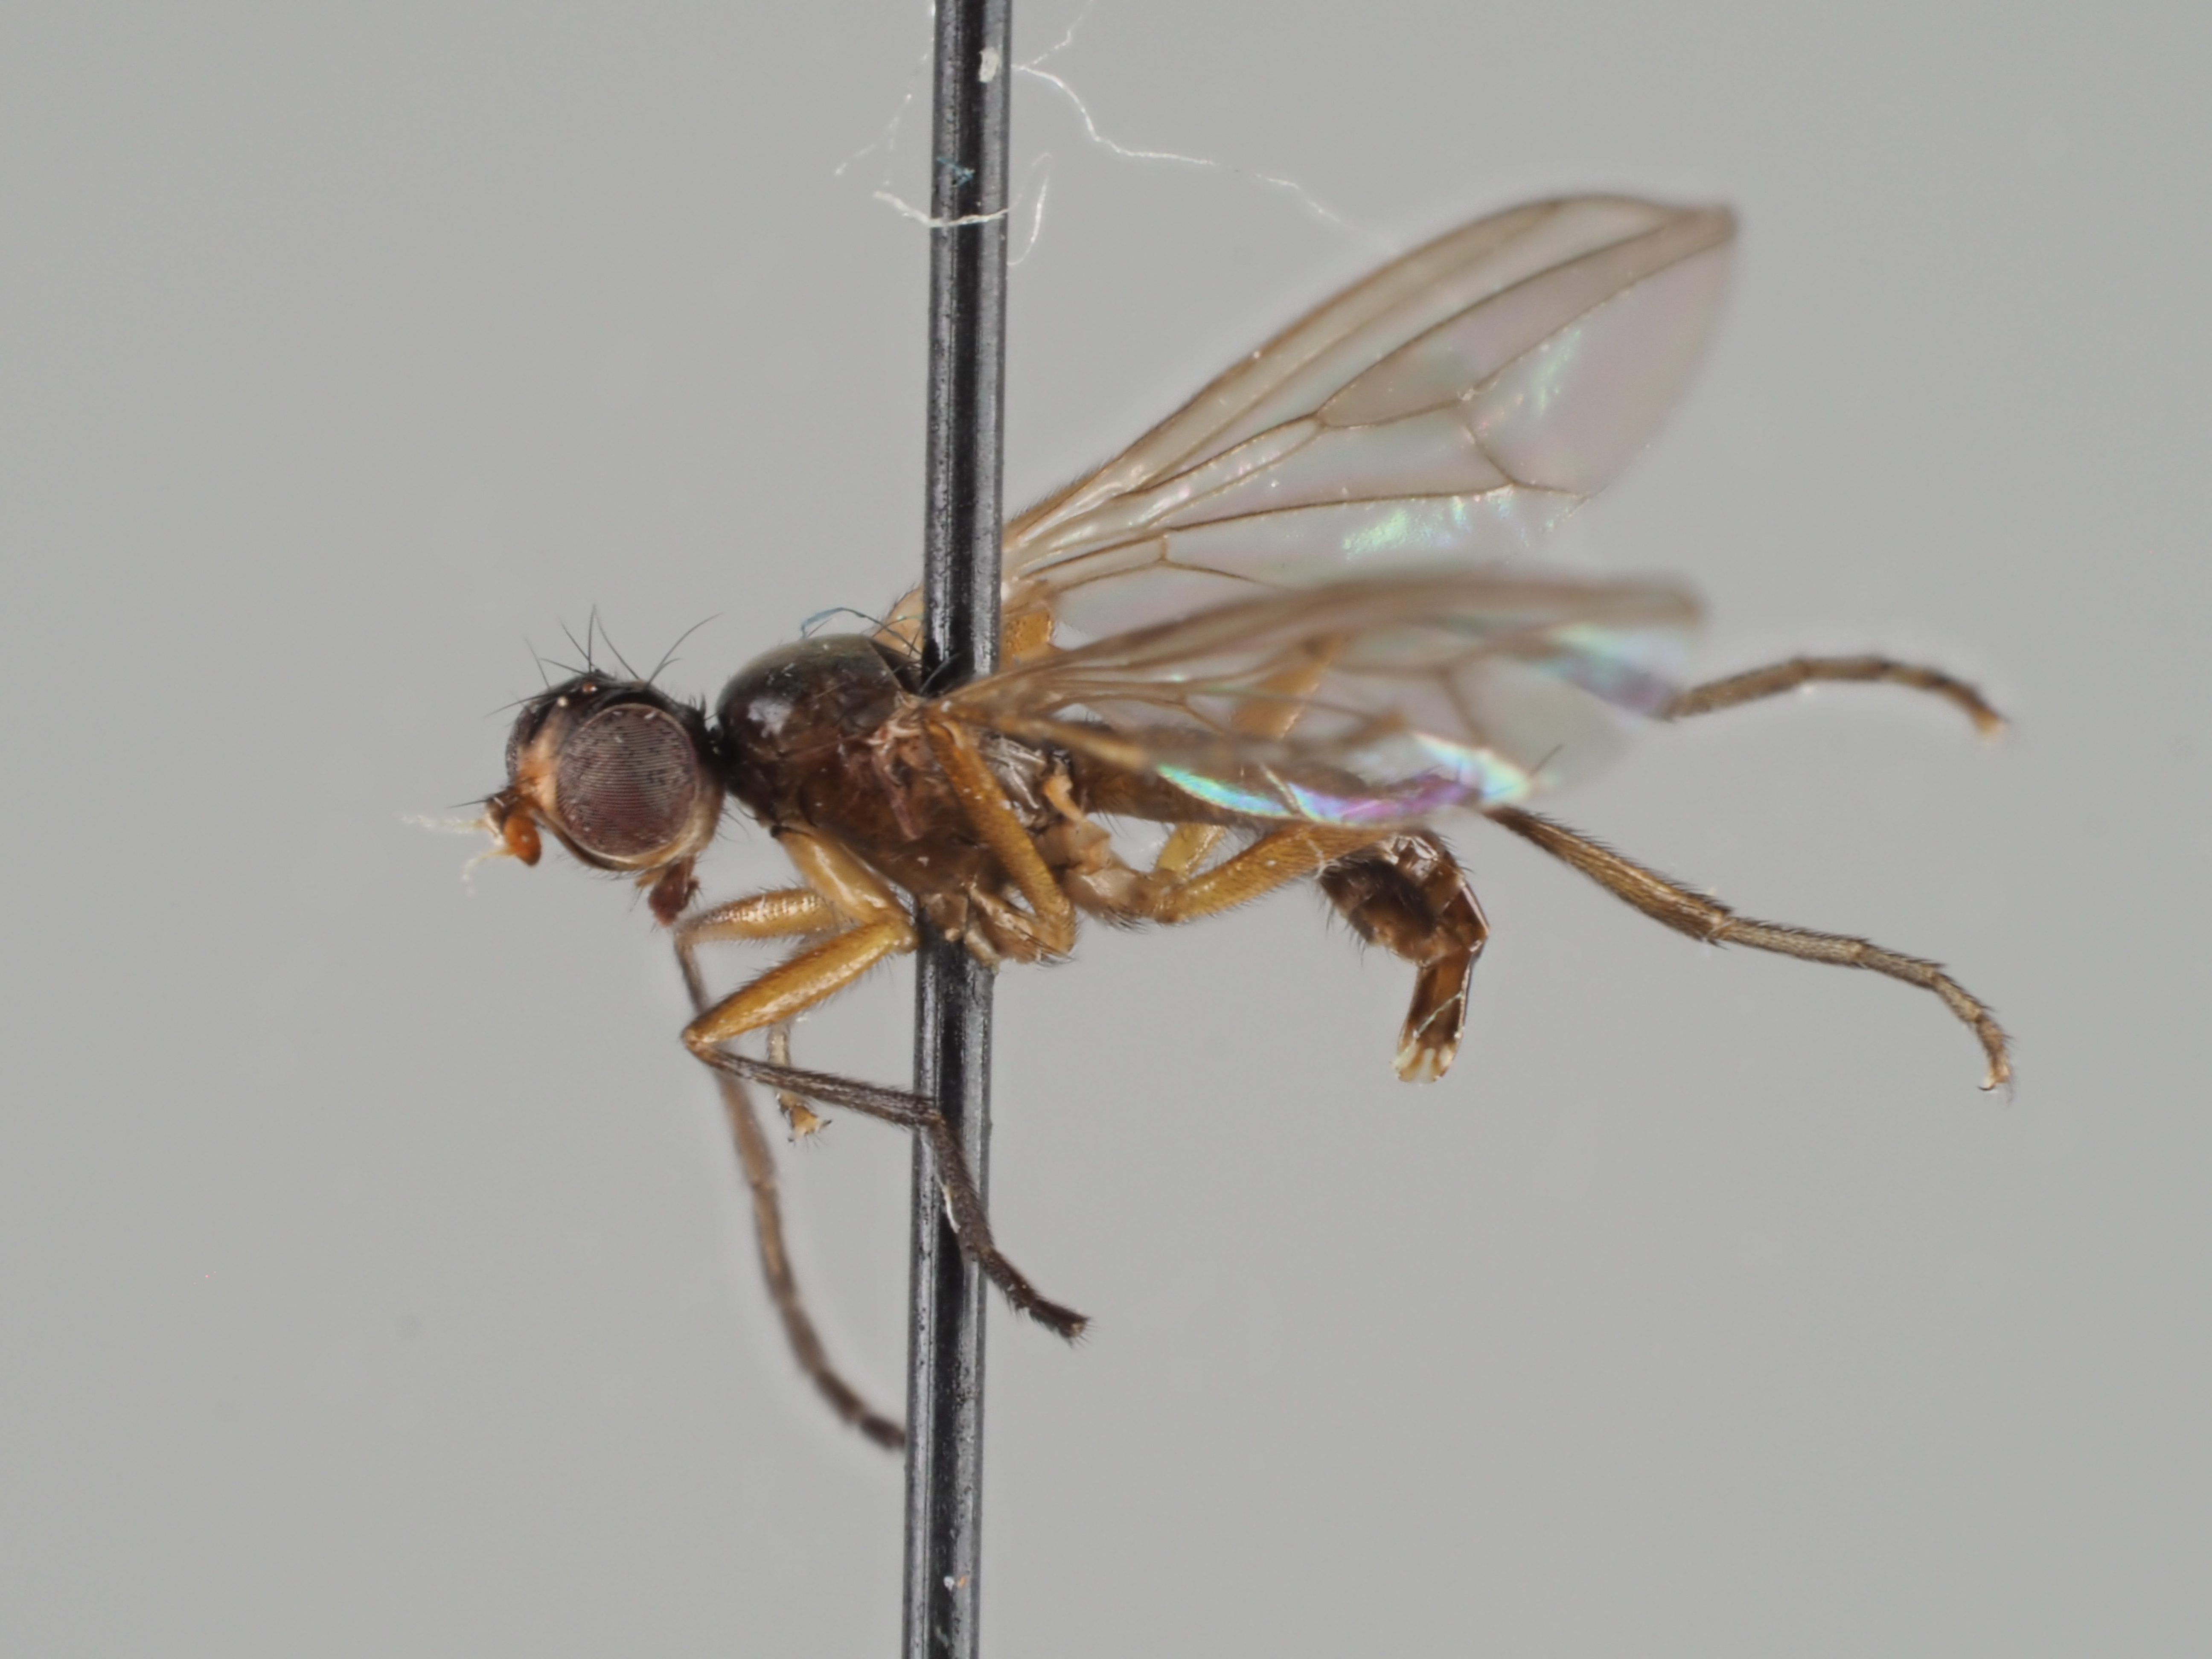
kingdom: Animalia
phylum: Arthropoda
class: Insecta
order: Diptera
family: Sciomyzidae
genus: Tetanura
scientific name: Tetanura pallidiventris
